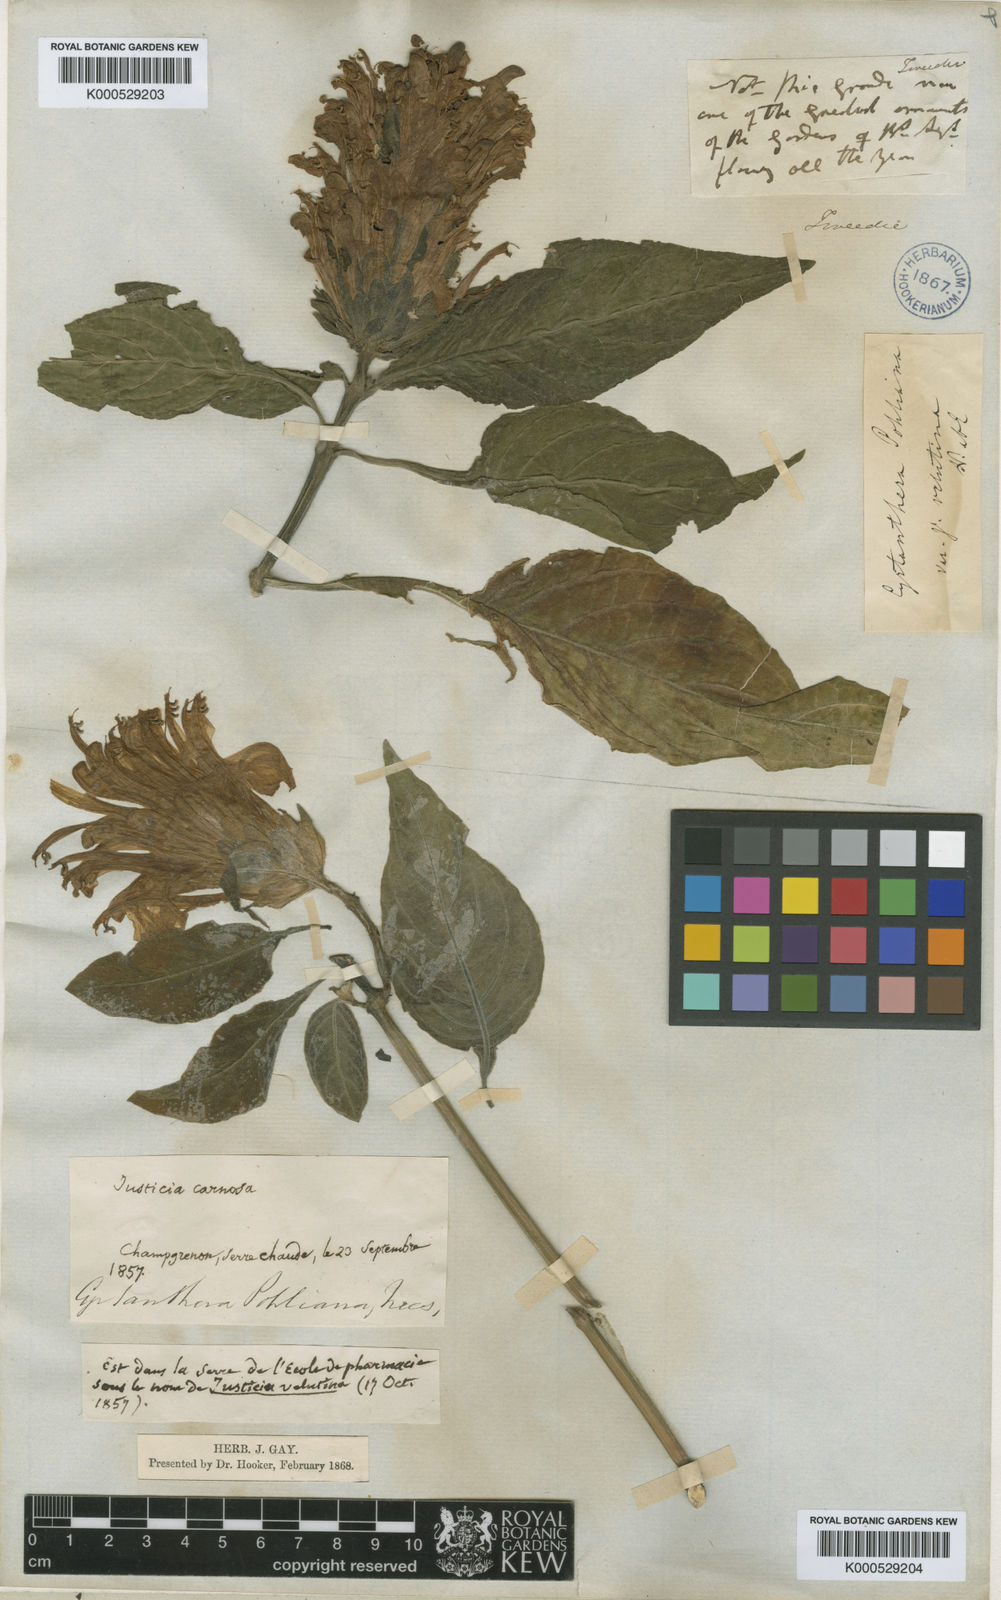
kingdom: Plantae
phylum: Tracheophyta
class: Magnoliopsida
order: Lamiales
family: Acanthaceae
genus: Justicia
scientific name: Justicia carnea
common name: Brazilian-plume
